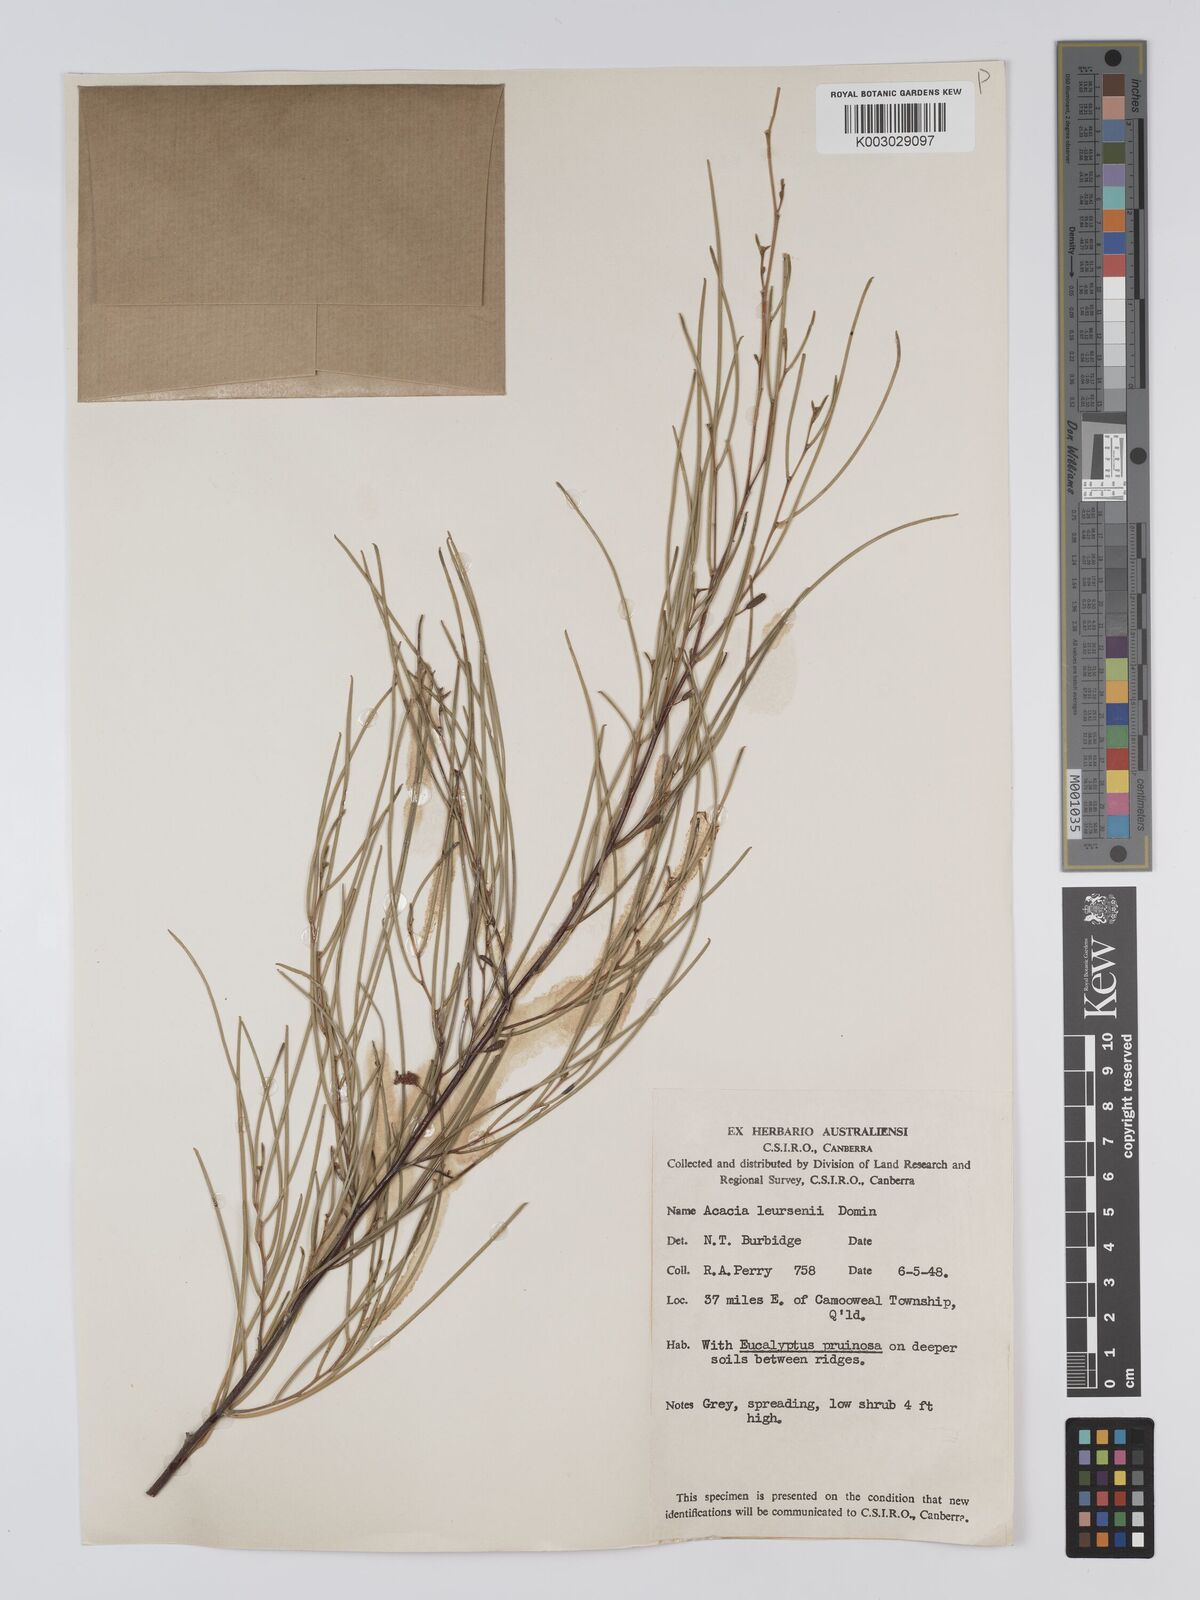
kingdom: Plantae
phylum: Tracheophyta
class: Magnoliopsida
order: Fabales
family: Fabaceae
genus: Acacia
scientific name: Acacia tenuissima
